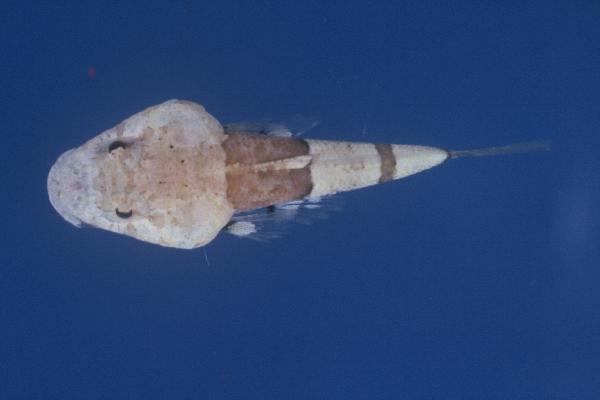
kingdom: Animalia
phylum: Chordata
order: Scorpaeniformes
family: Platycephalidae
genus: Onigocia
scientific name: Onigocia
